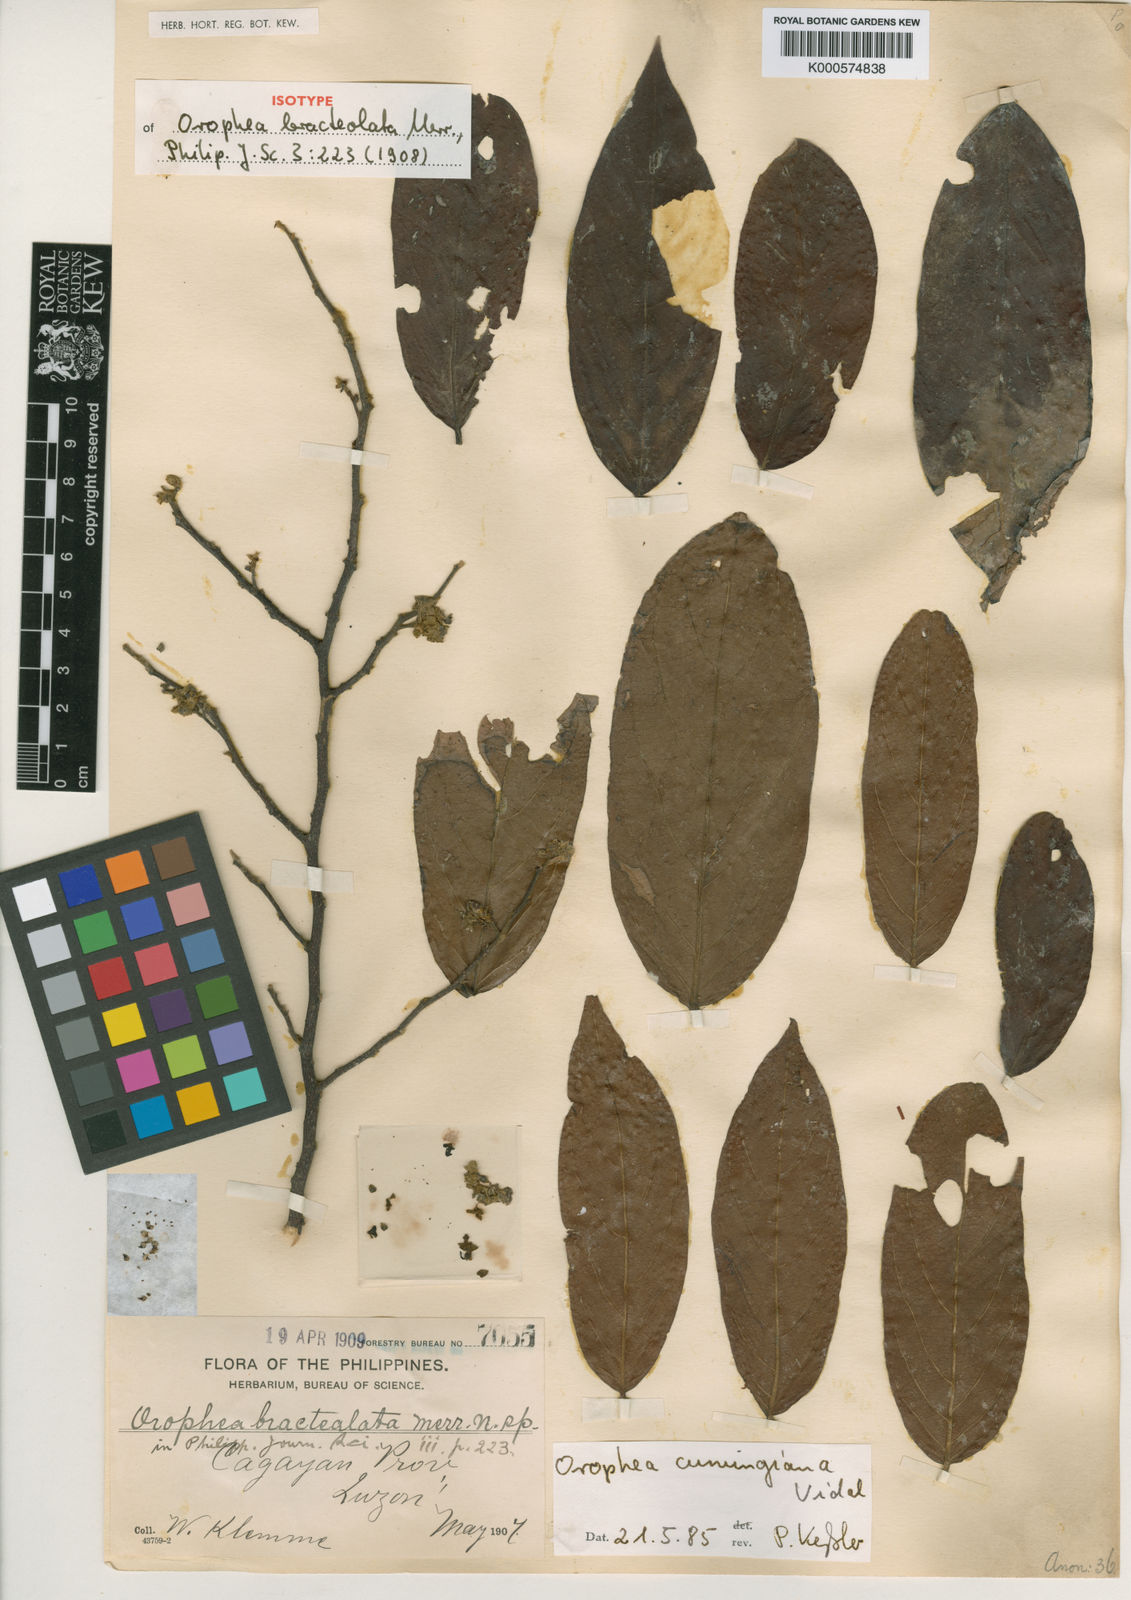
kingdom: Plantae
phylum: Tracheophyta
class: Magnoliopsida
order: Magnoliales
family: Annonaceae
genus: Orophea
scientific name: Orophea cumingiana
